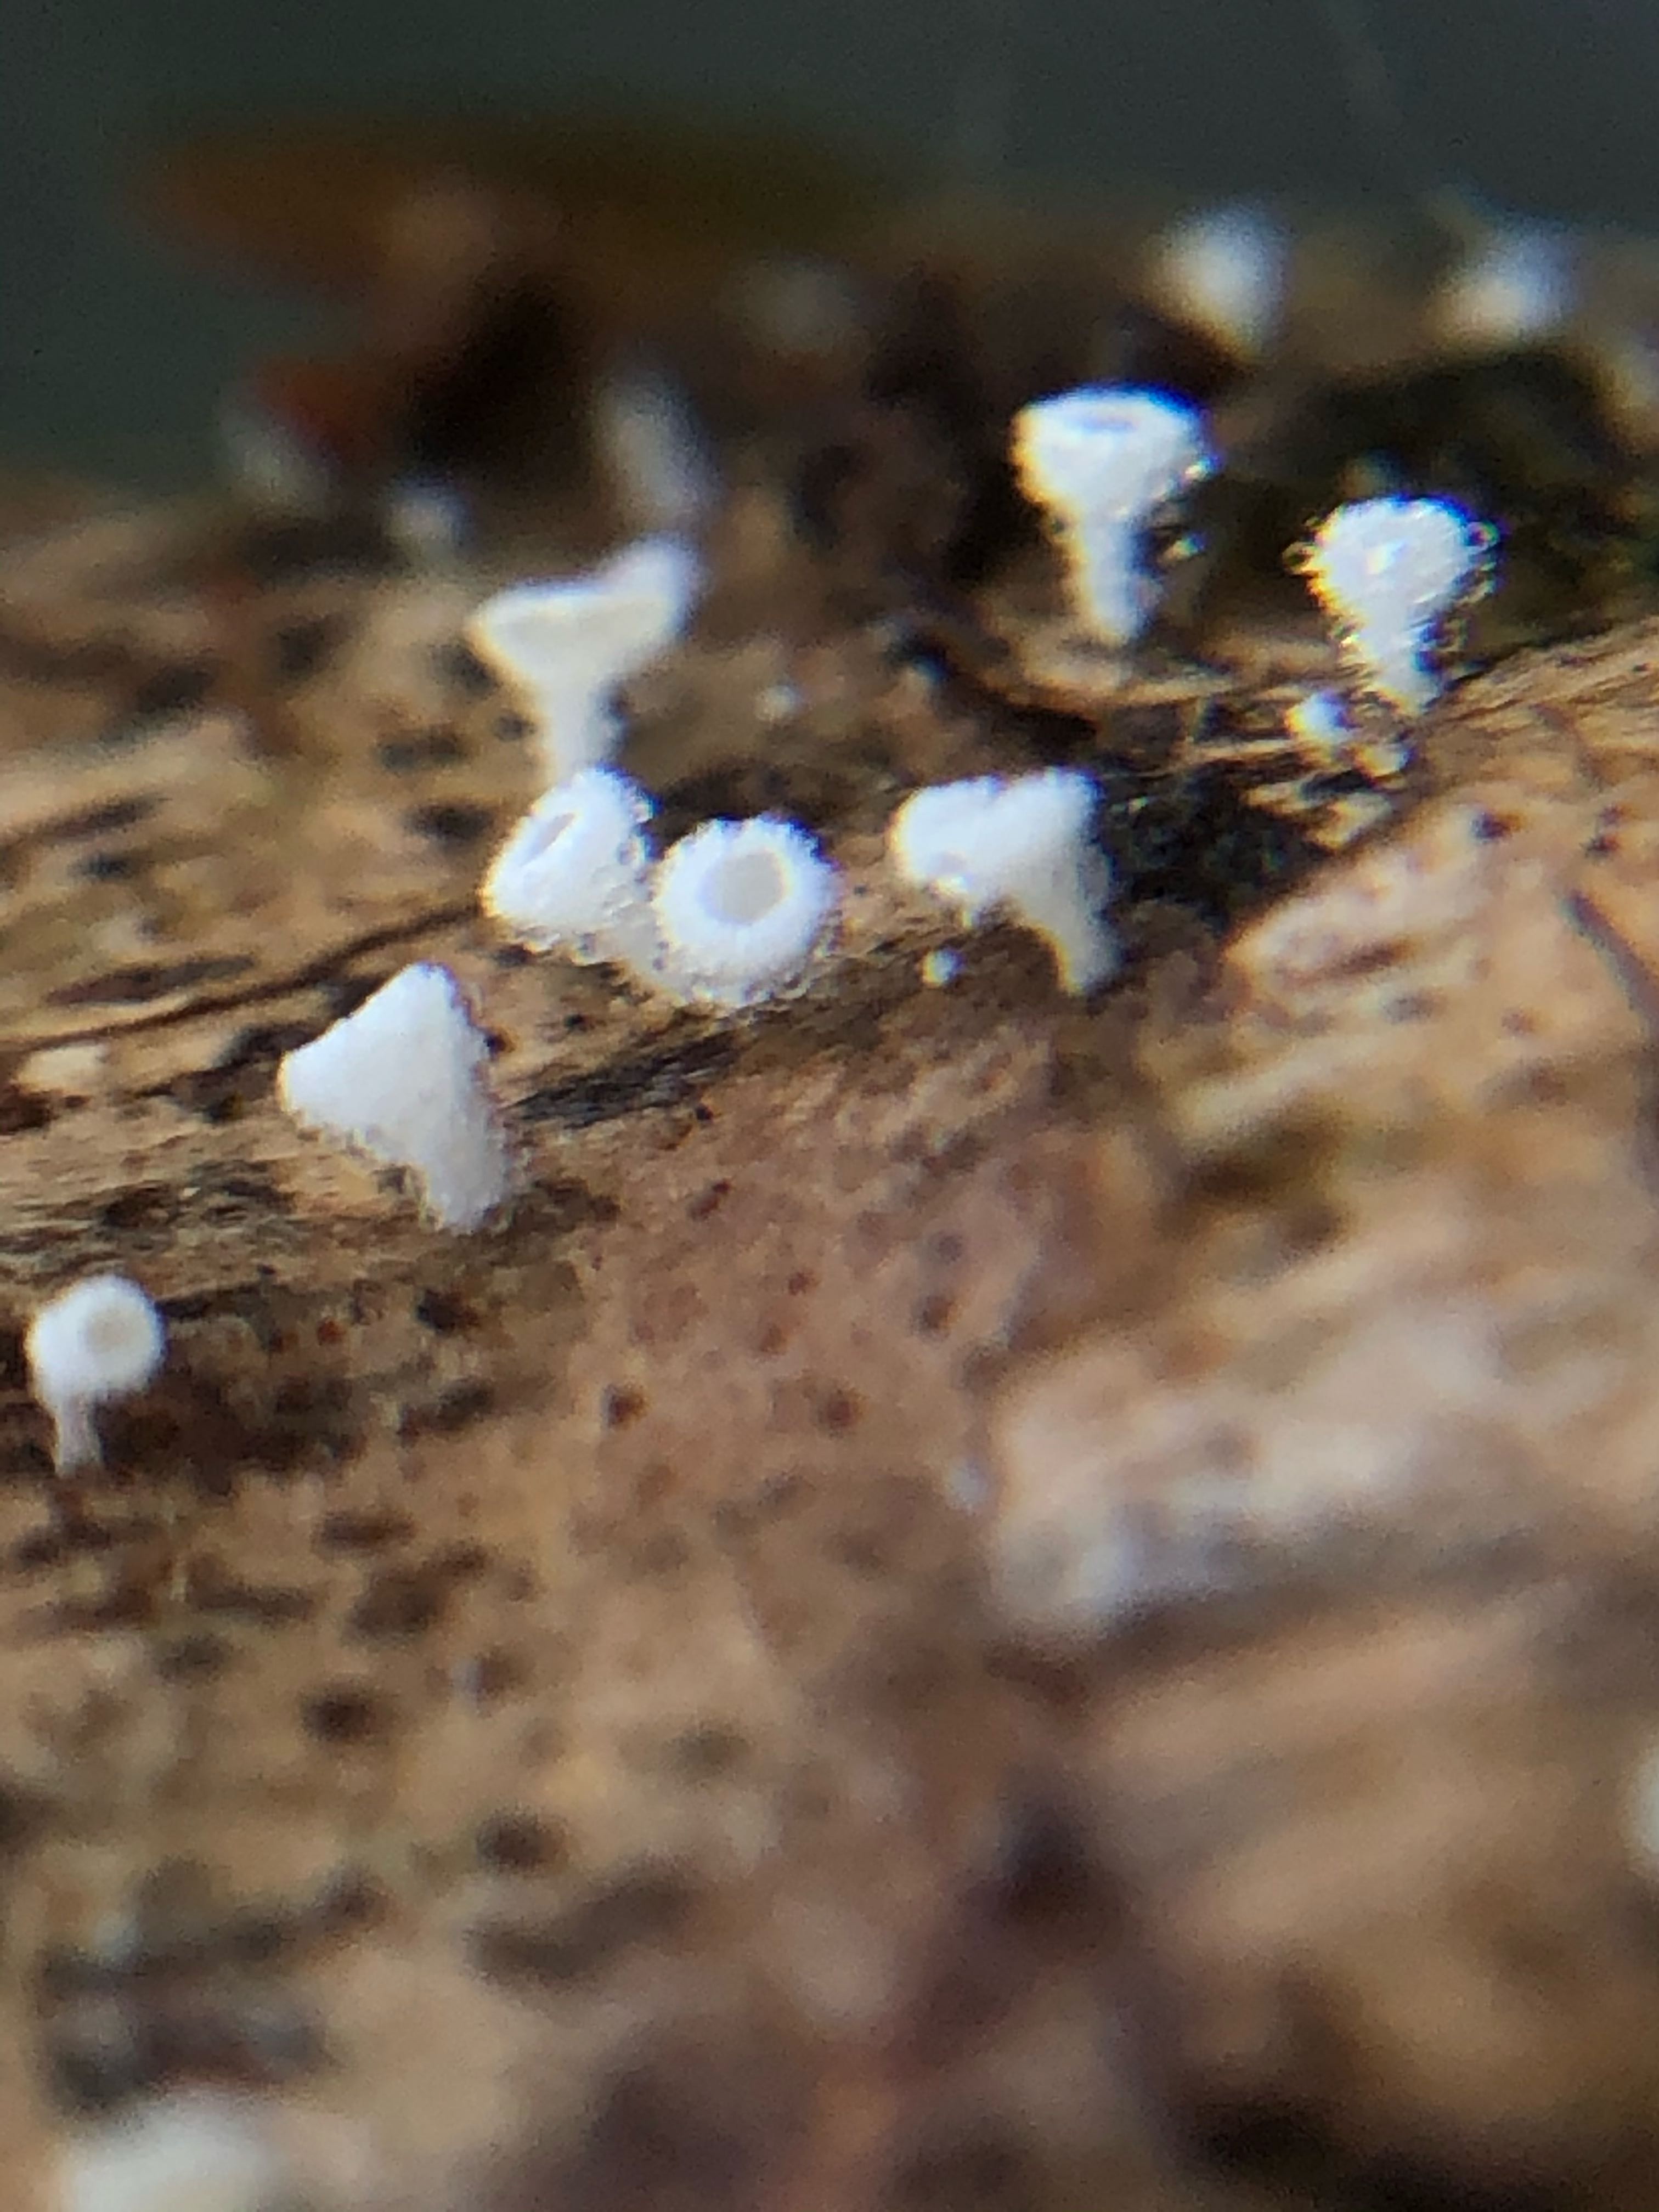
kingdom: Fungi
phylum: Ascomycota
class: Leotiomycetes
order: Helotiales
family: Lachnaceae
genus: Lachnum
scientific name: Lachnum virgineum
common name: jomfru-frynseskive
